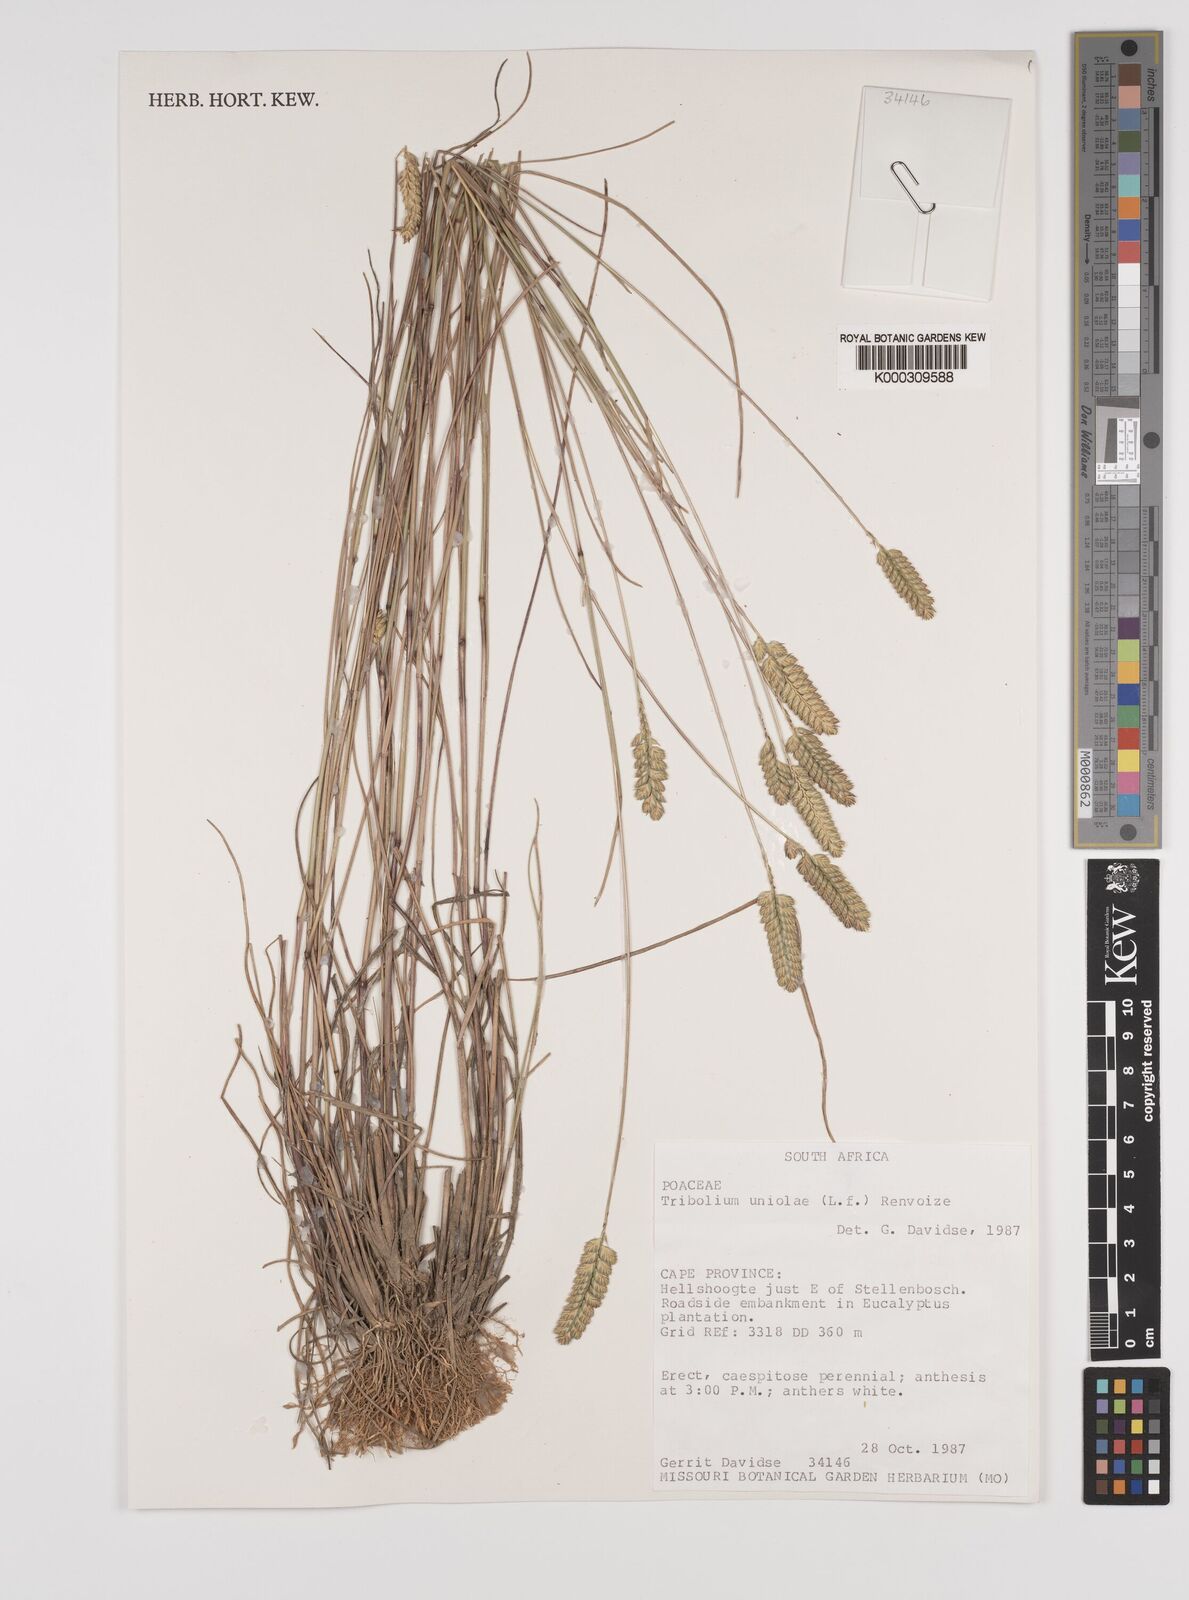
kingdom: Plantae
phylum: Tracheophyta
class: Liliopsida
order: Poales
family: Poaceae
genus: Tribolium
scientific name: Tribolium uniolae
